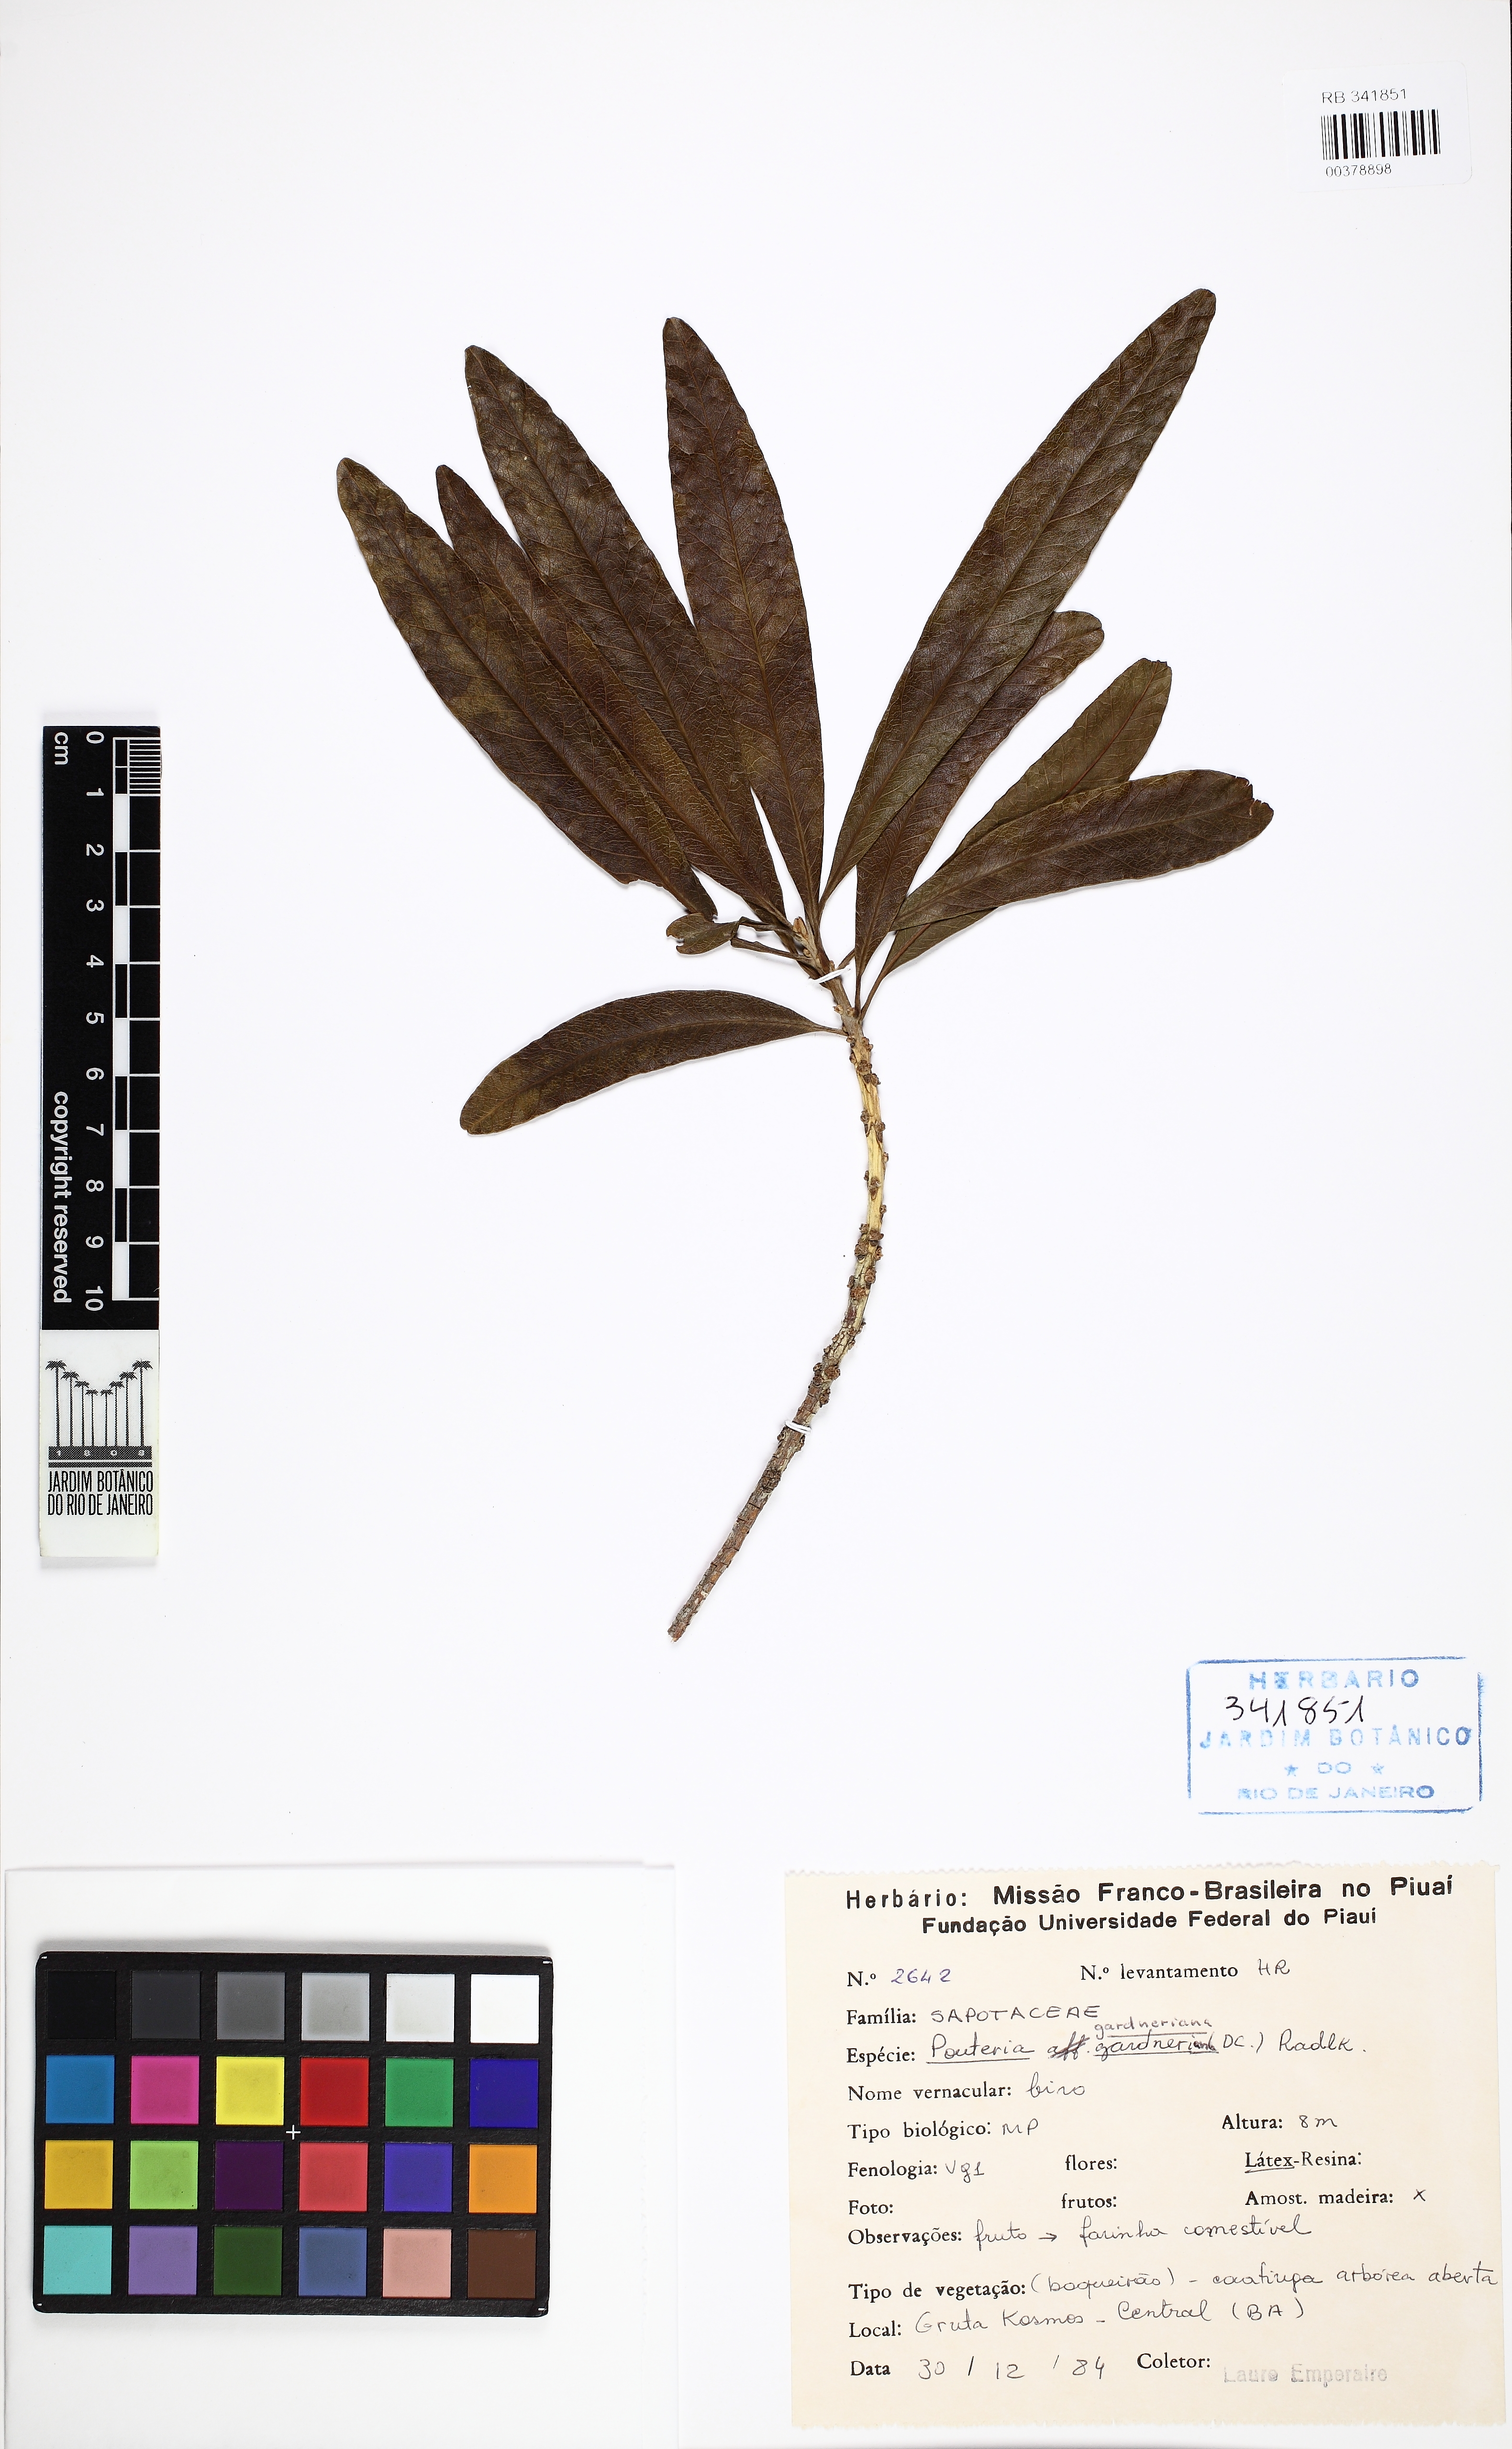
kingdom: Plantae
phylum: Tracheophyta
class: Magnoliopsida
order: Ericales
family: Sapotaceae
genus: Pouteria
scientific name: Pouteria gardneriana
